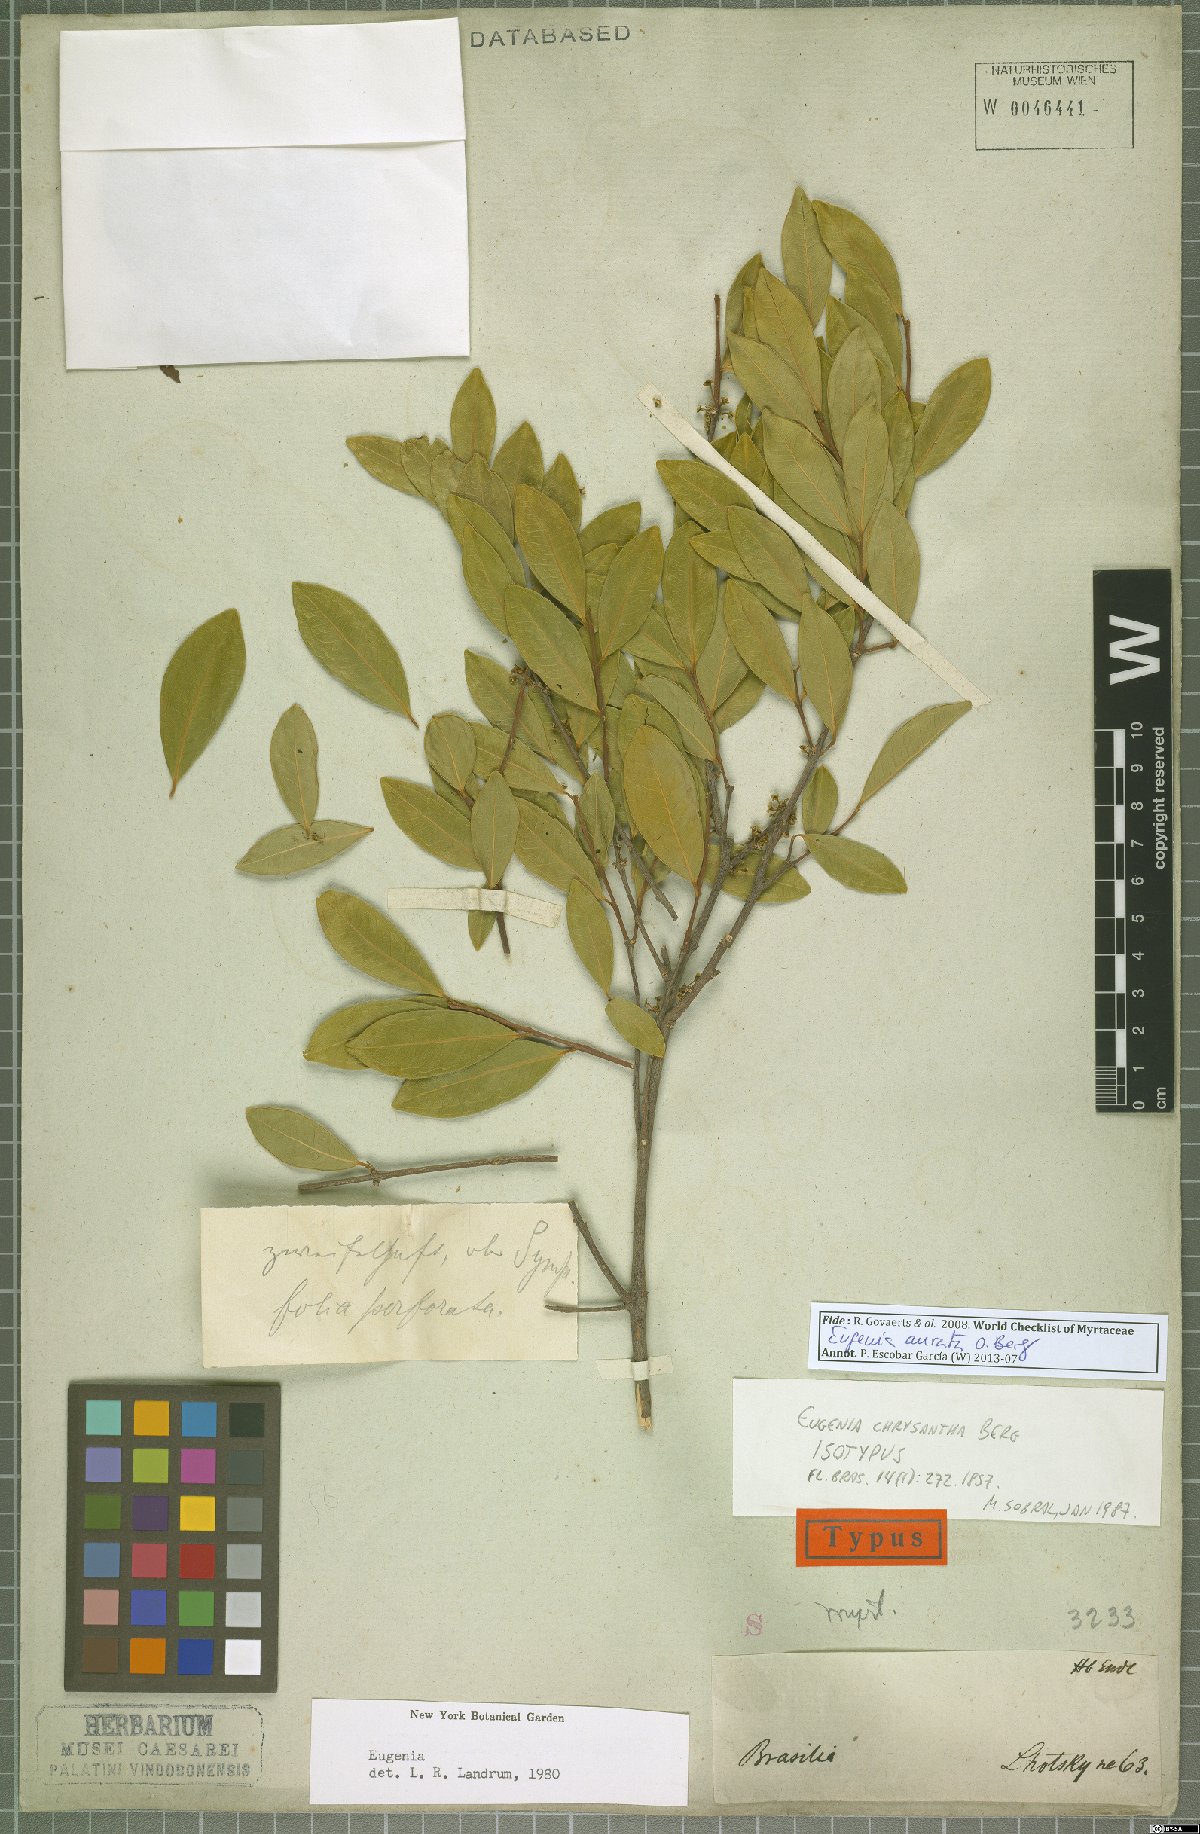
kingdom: Plantae
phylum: Tracheophyta
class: Magnoliopsida
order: Myrtales
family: Myrtaceae
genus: Eugenia
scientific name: Eugenia aurata
